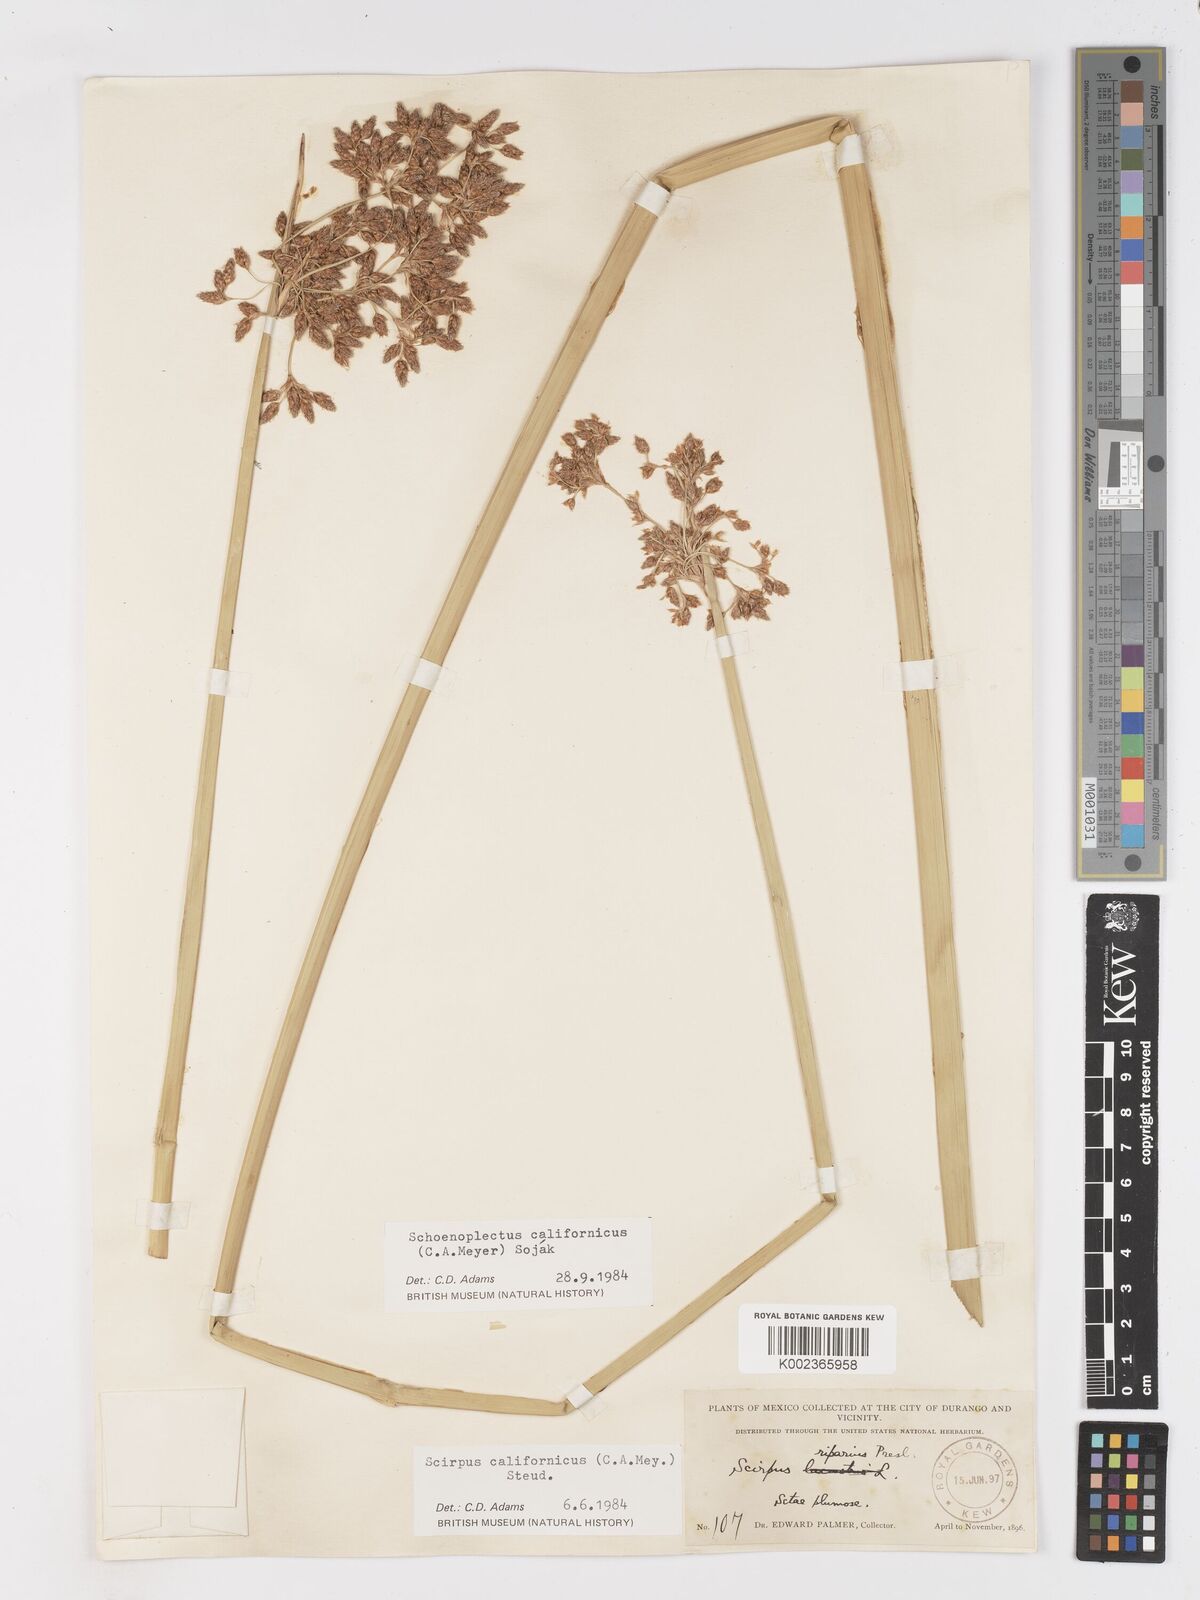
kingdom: Plantae
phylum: Tracheophyta
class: Liliopsida
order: Poales
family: Cyperaceae
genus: Schoenoplectus
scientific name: Schoenoplectus californicus
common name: California bulrush
